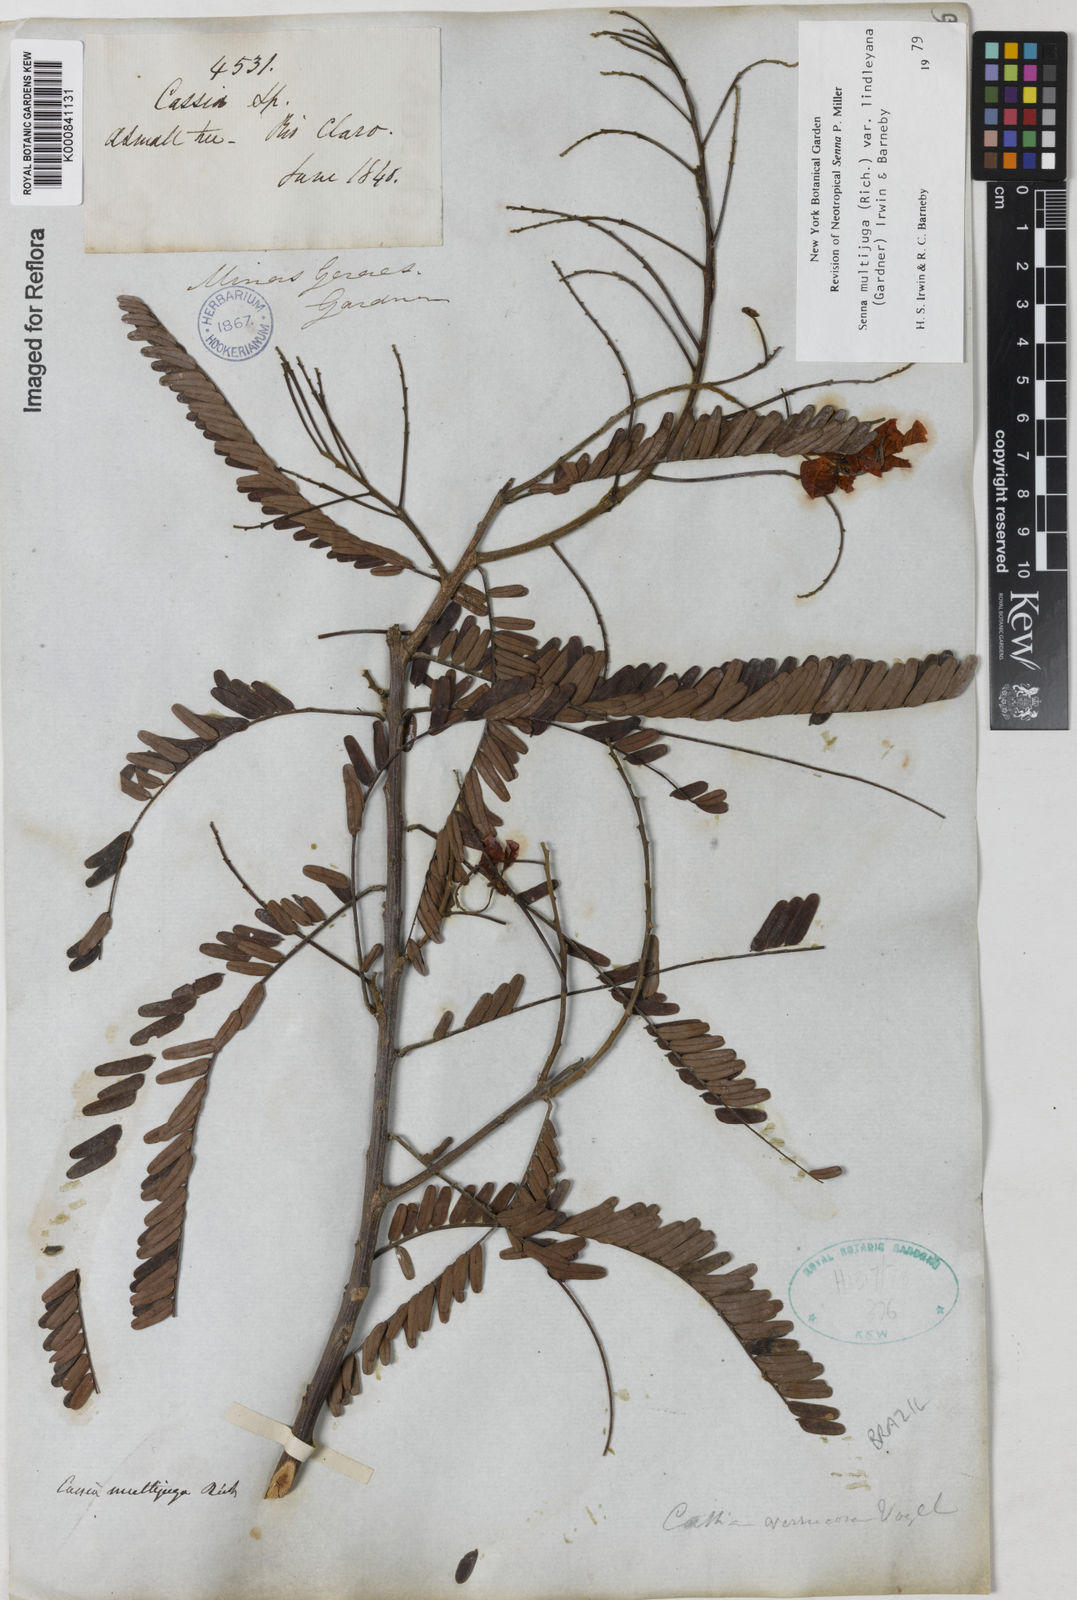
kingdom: Plantae
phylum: Tracheophyta
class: Magnoliopsida
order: Fabales
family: Fabaceae
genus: Senna
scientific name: Senna multijuga
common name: False sicklepod
